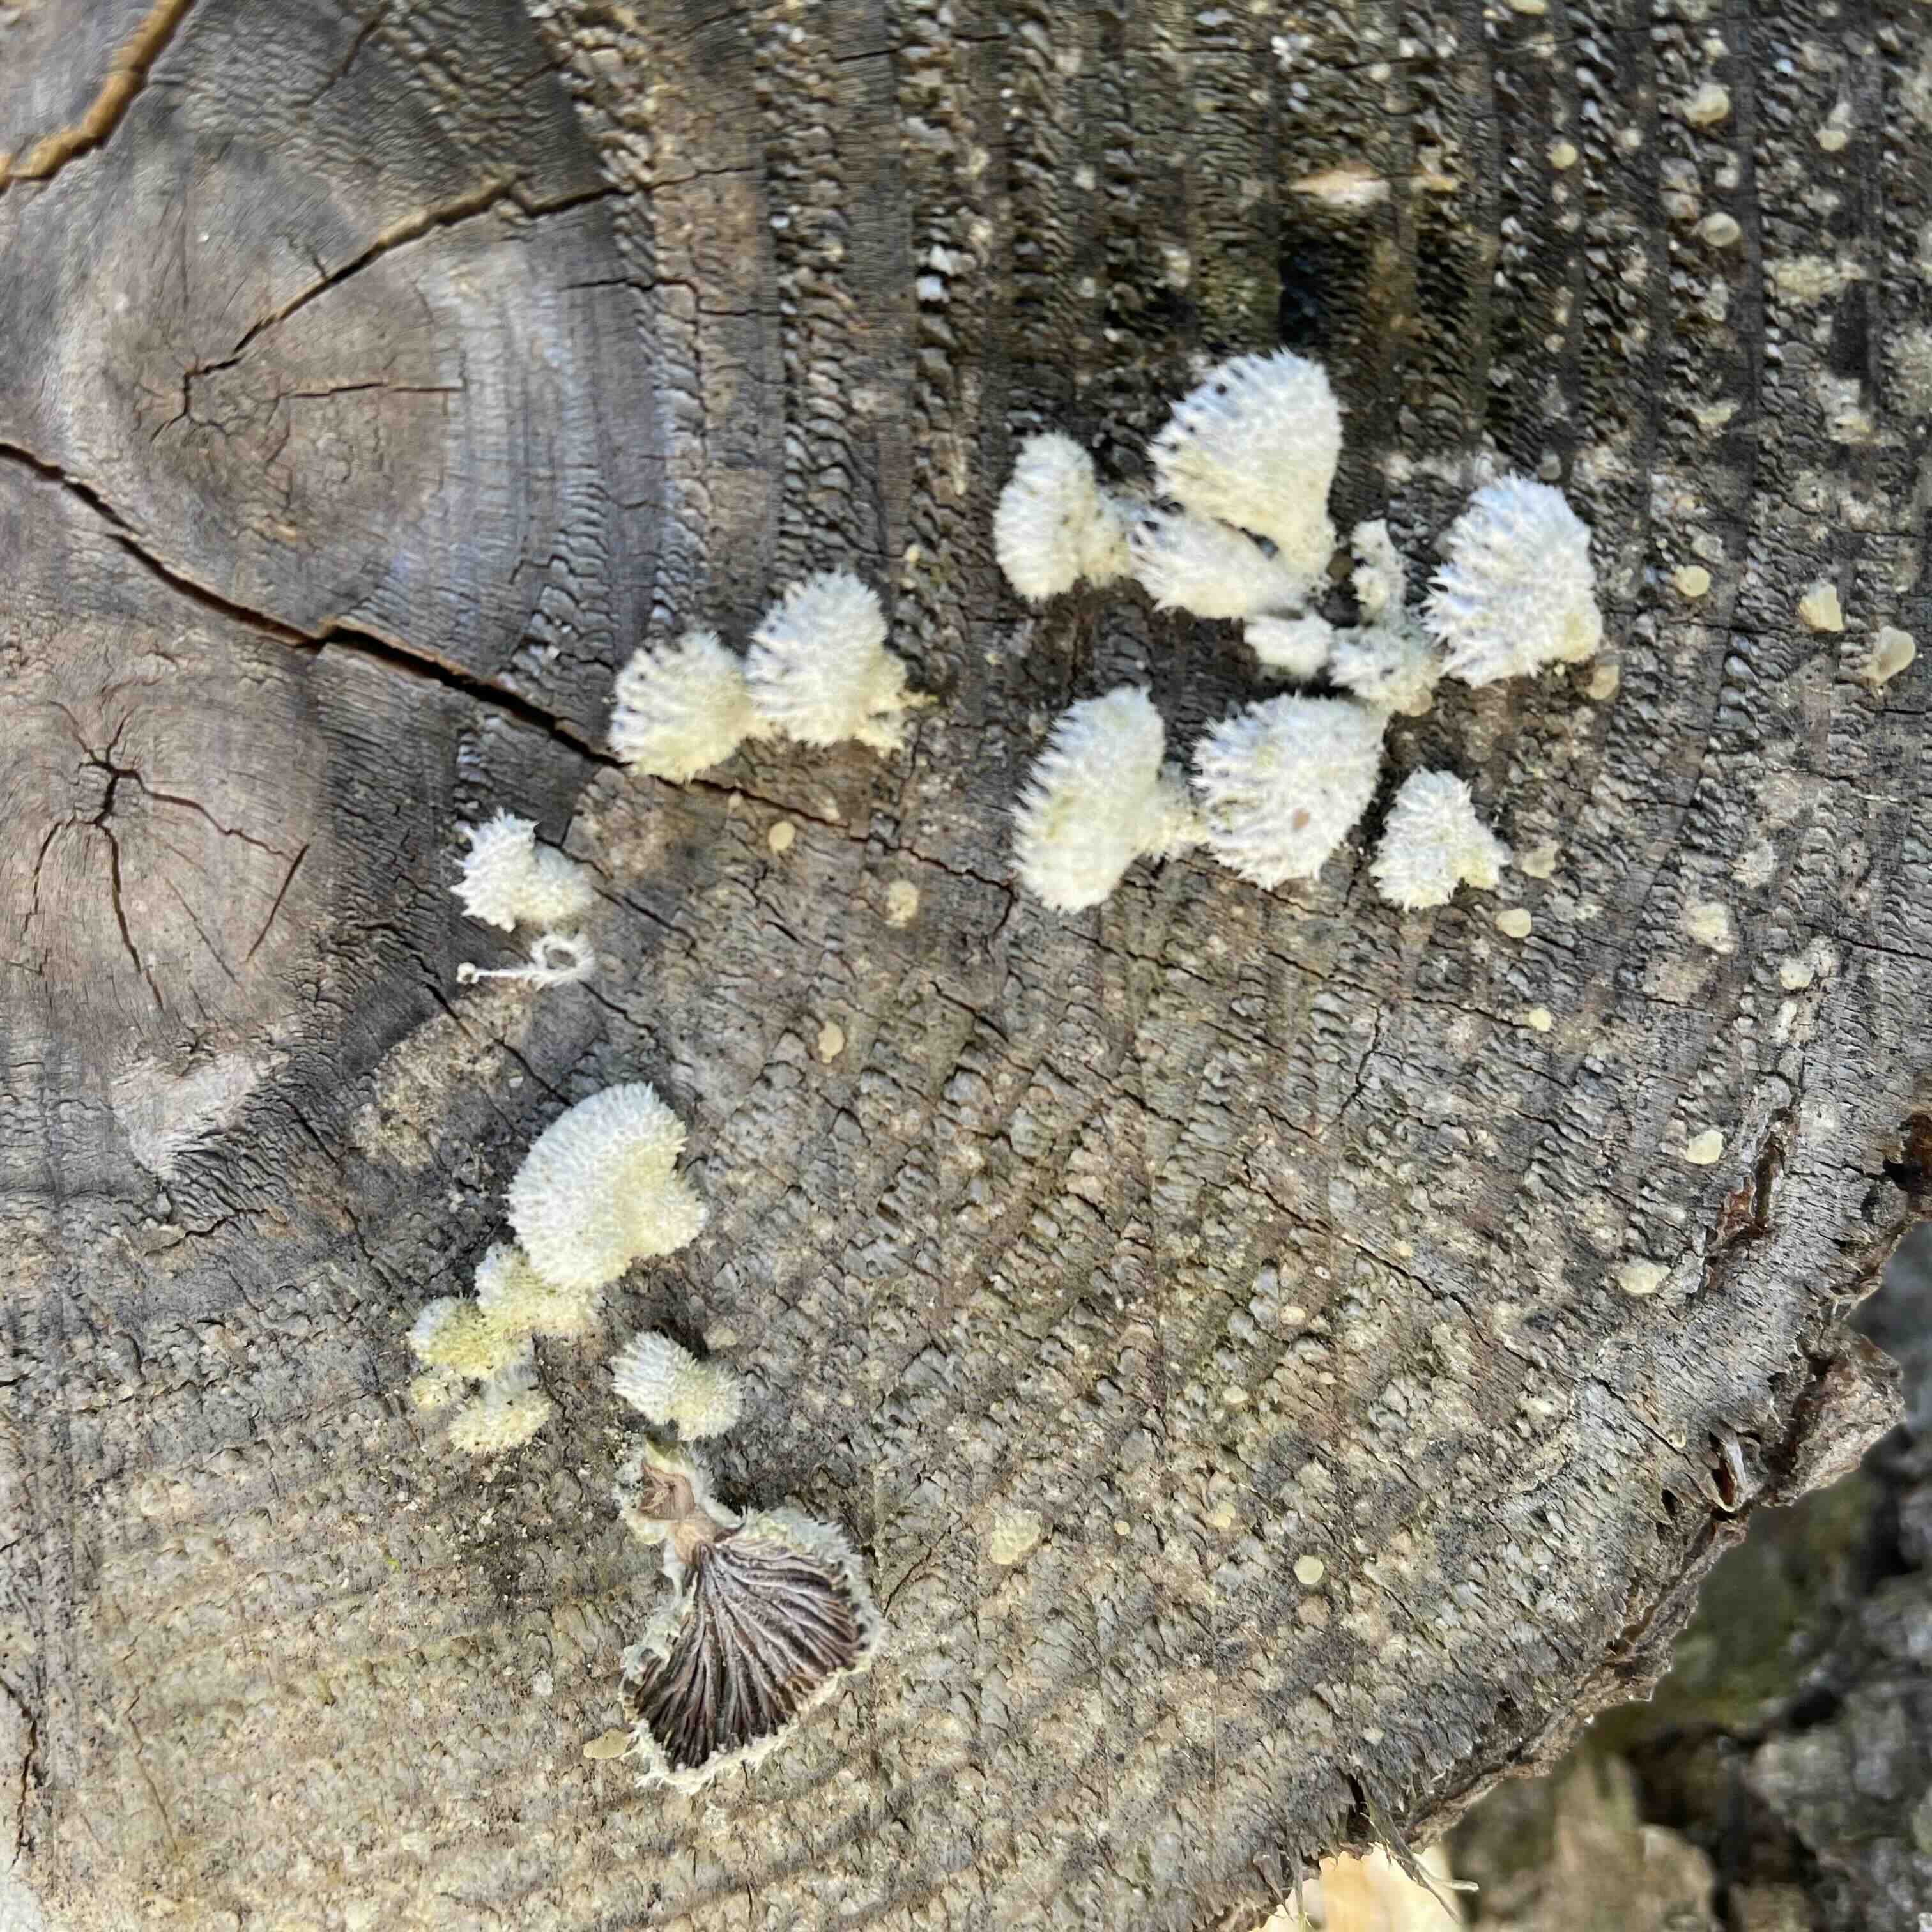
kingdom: Fungi
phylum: Basidiomycota
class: Agaricomycetes
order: Agaricales
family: Schizophyllaceae
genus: Schizophyllum
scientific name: Schizophyllum commune
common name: kløvblad
